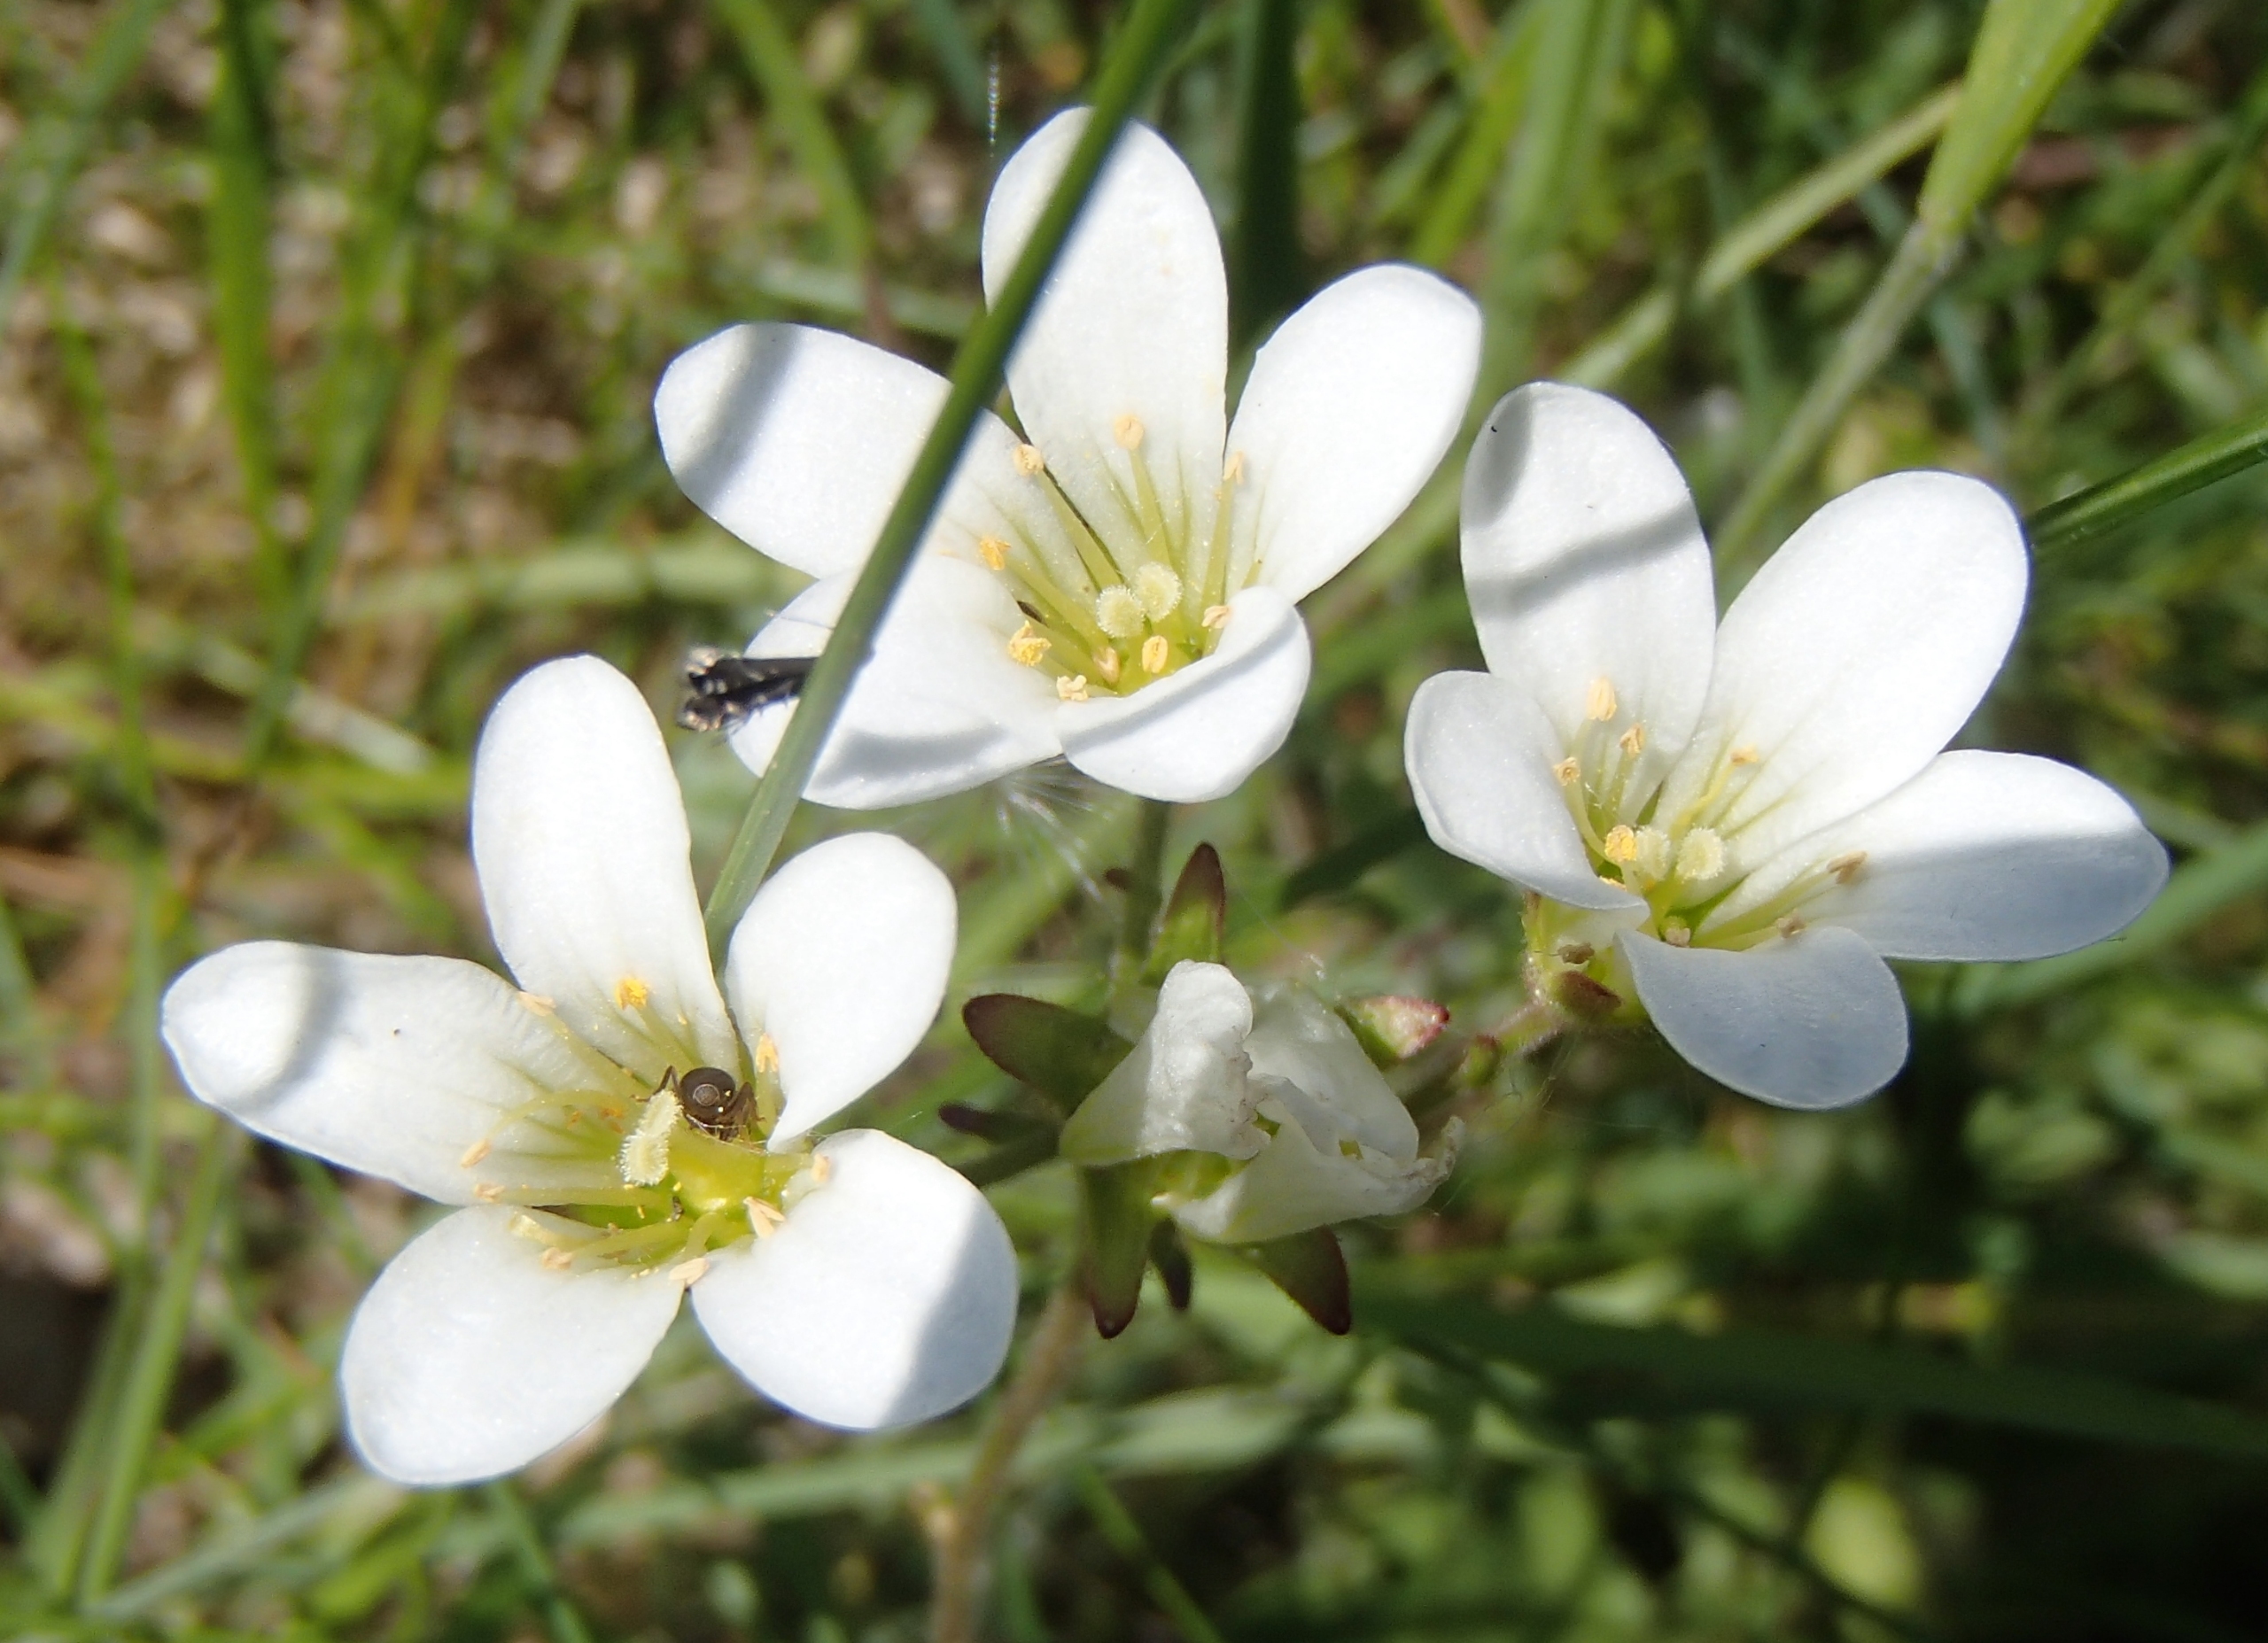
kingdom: Plantae
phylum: Tracheophyta
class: Magnoliopsida
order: Saxifragales
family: Saxifragaceae
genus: Saxifraga
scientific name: Saxifraga granulata
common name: Kornet stenbræk
